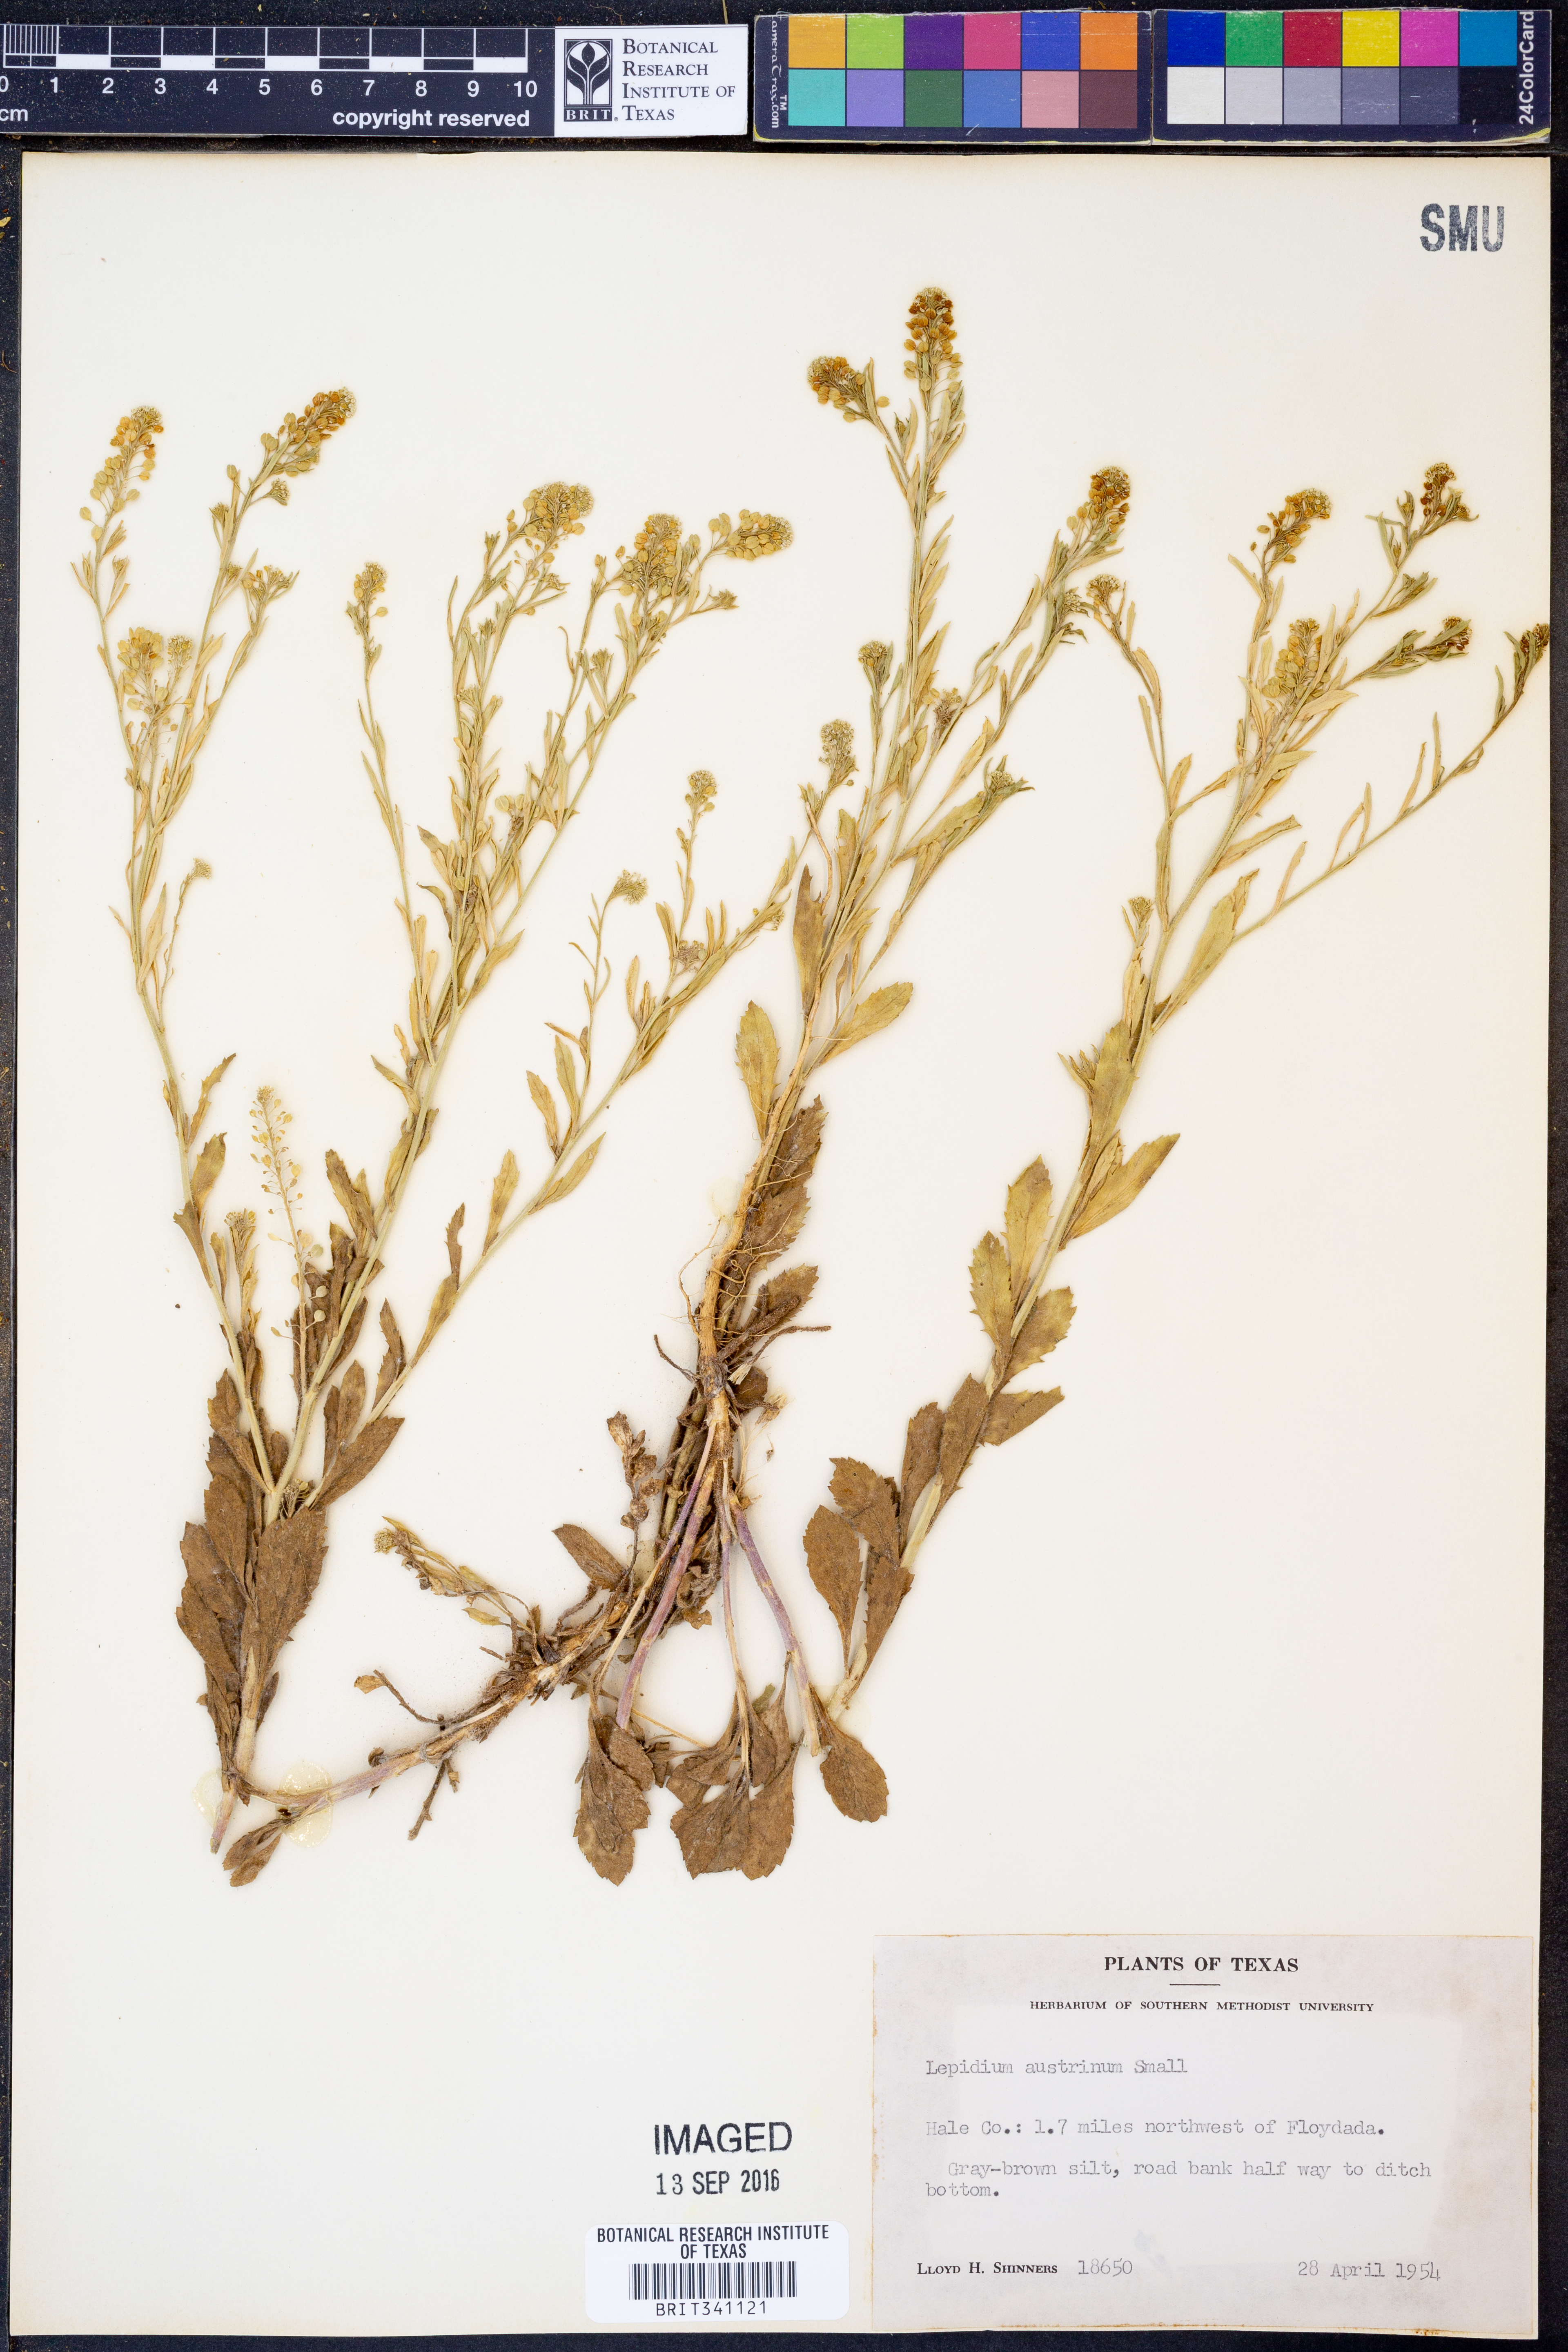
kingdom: Plantae
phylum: Tracheophyta
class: Magnoliopsida
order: Brassicales
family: Brassicaceae
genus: Lepidium
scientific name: Lepidium austrinum
